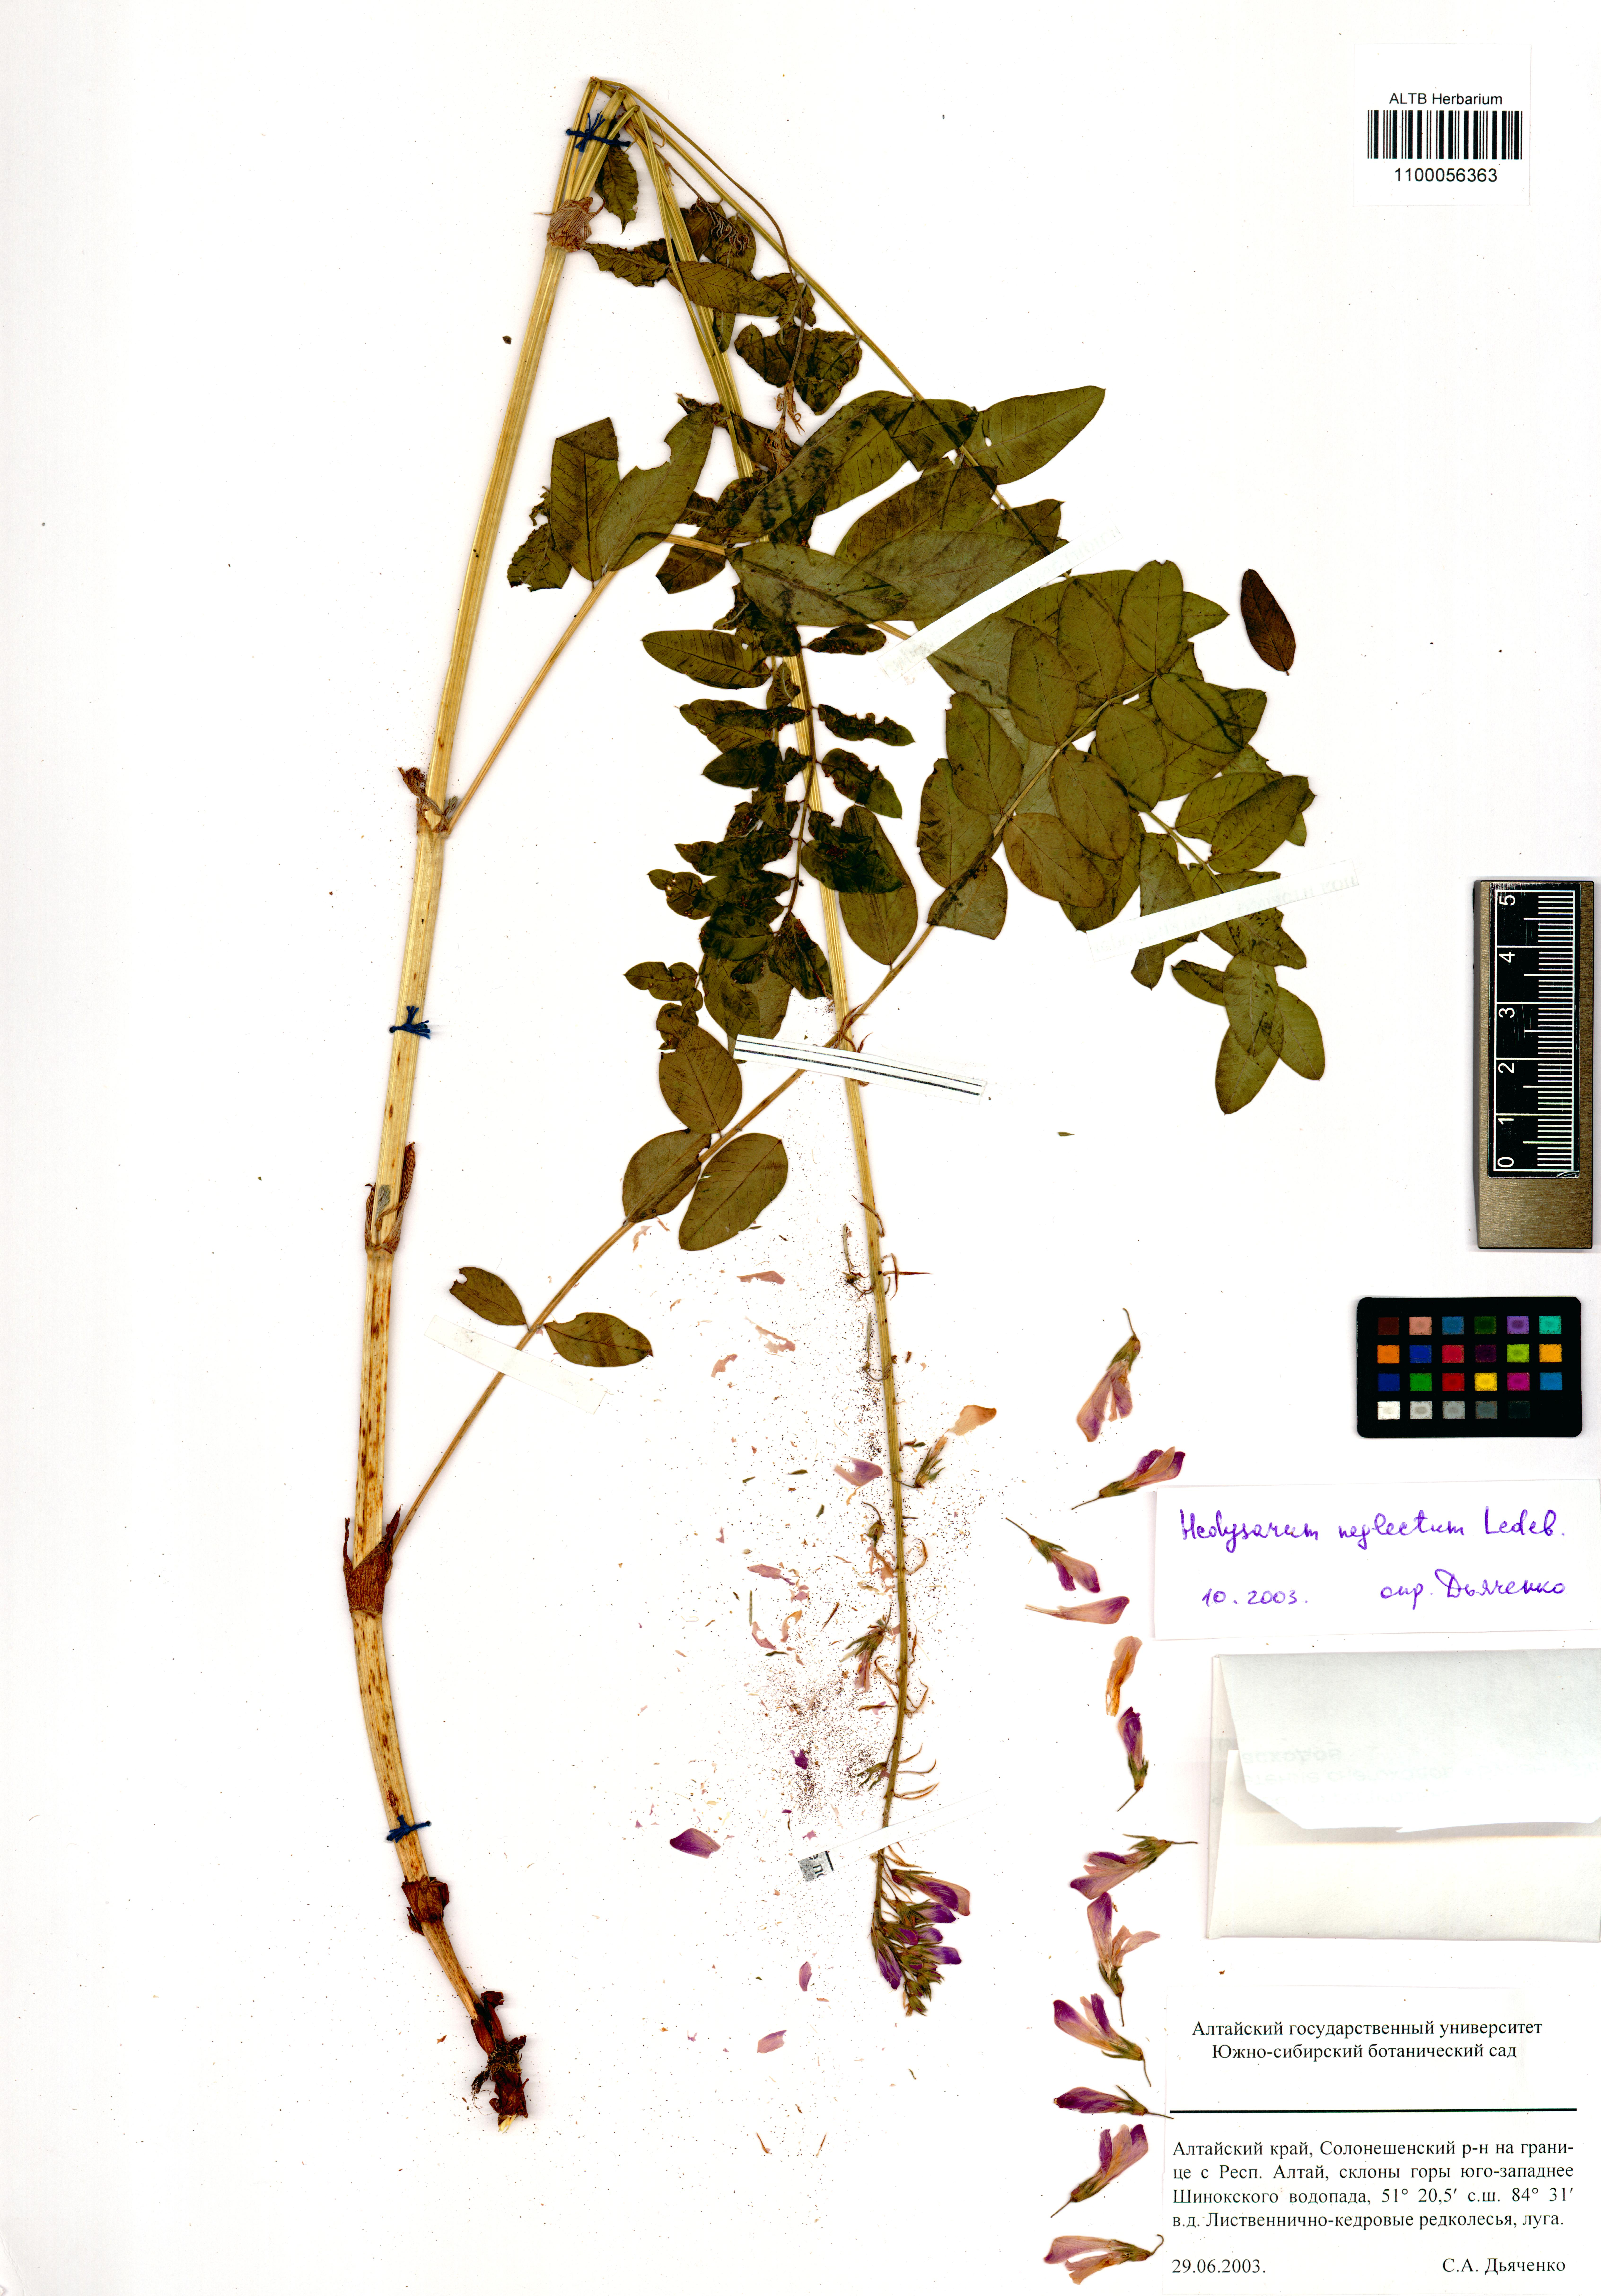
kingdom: Plantae
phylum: Tracheophyta
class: Magnoliopsida
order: Fabales
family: Fabaceae
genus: Hedysarum
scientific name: Hedysarum neglectum
